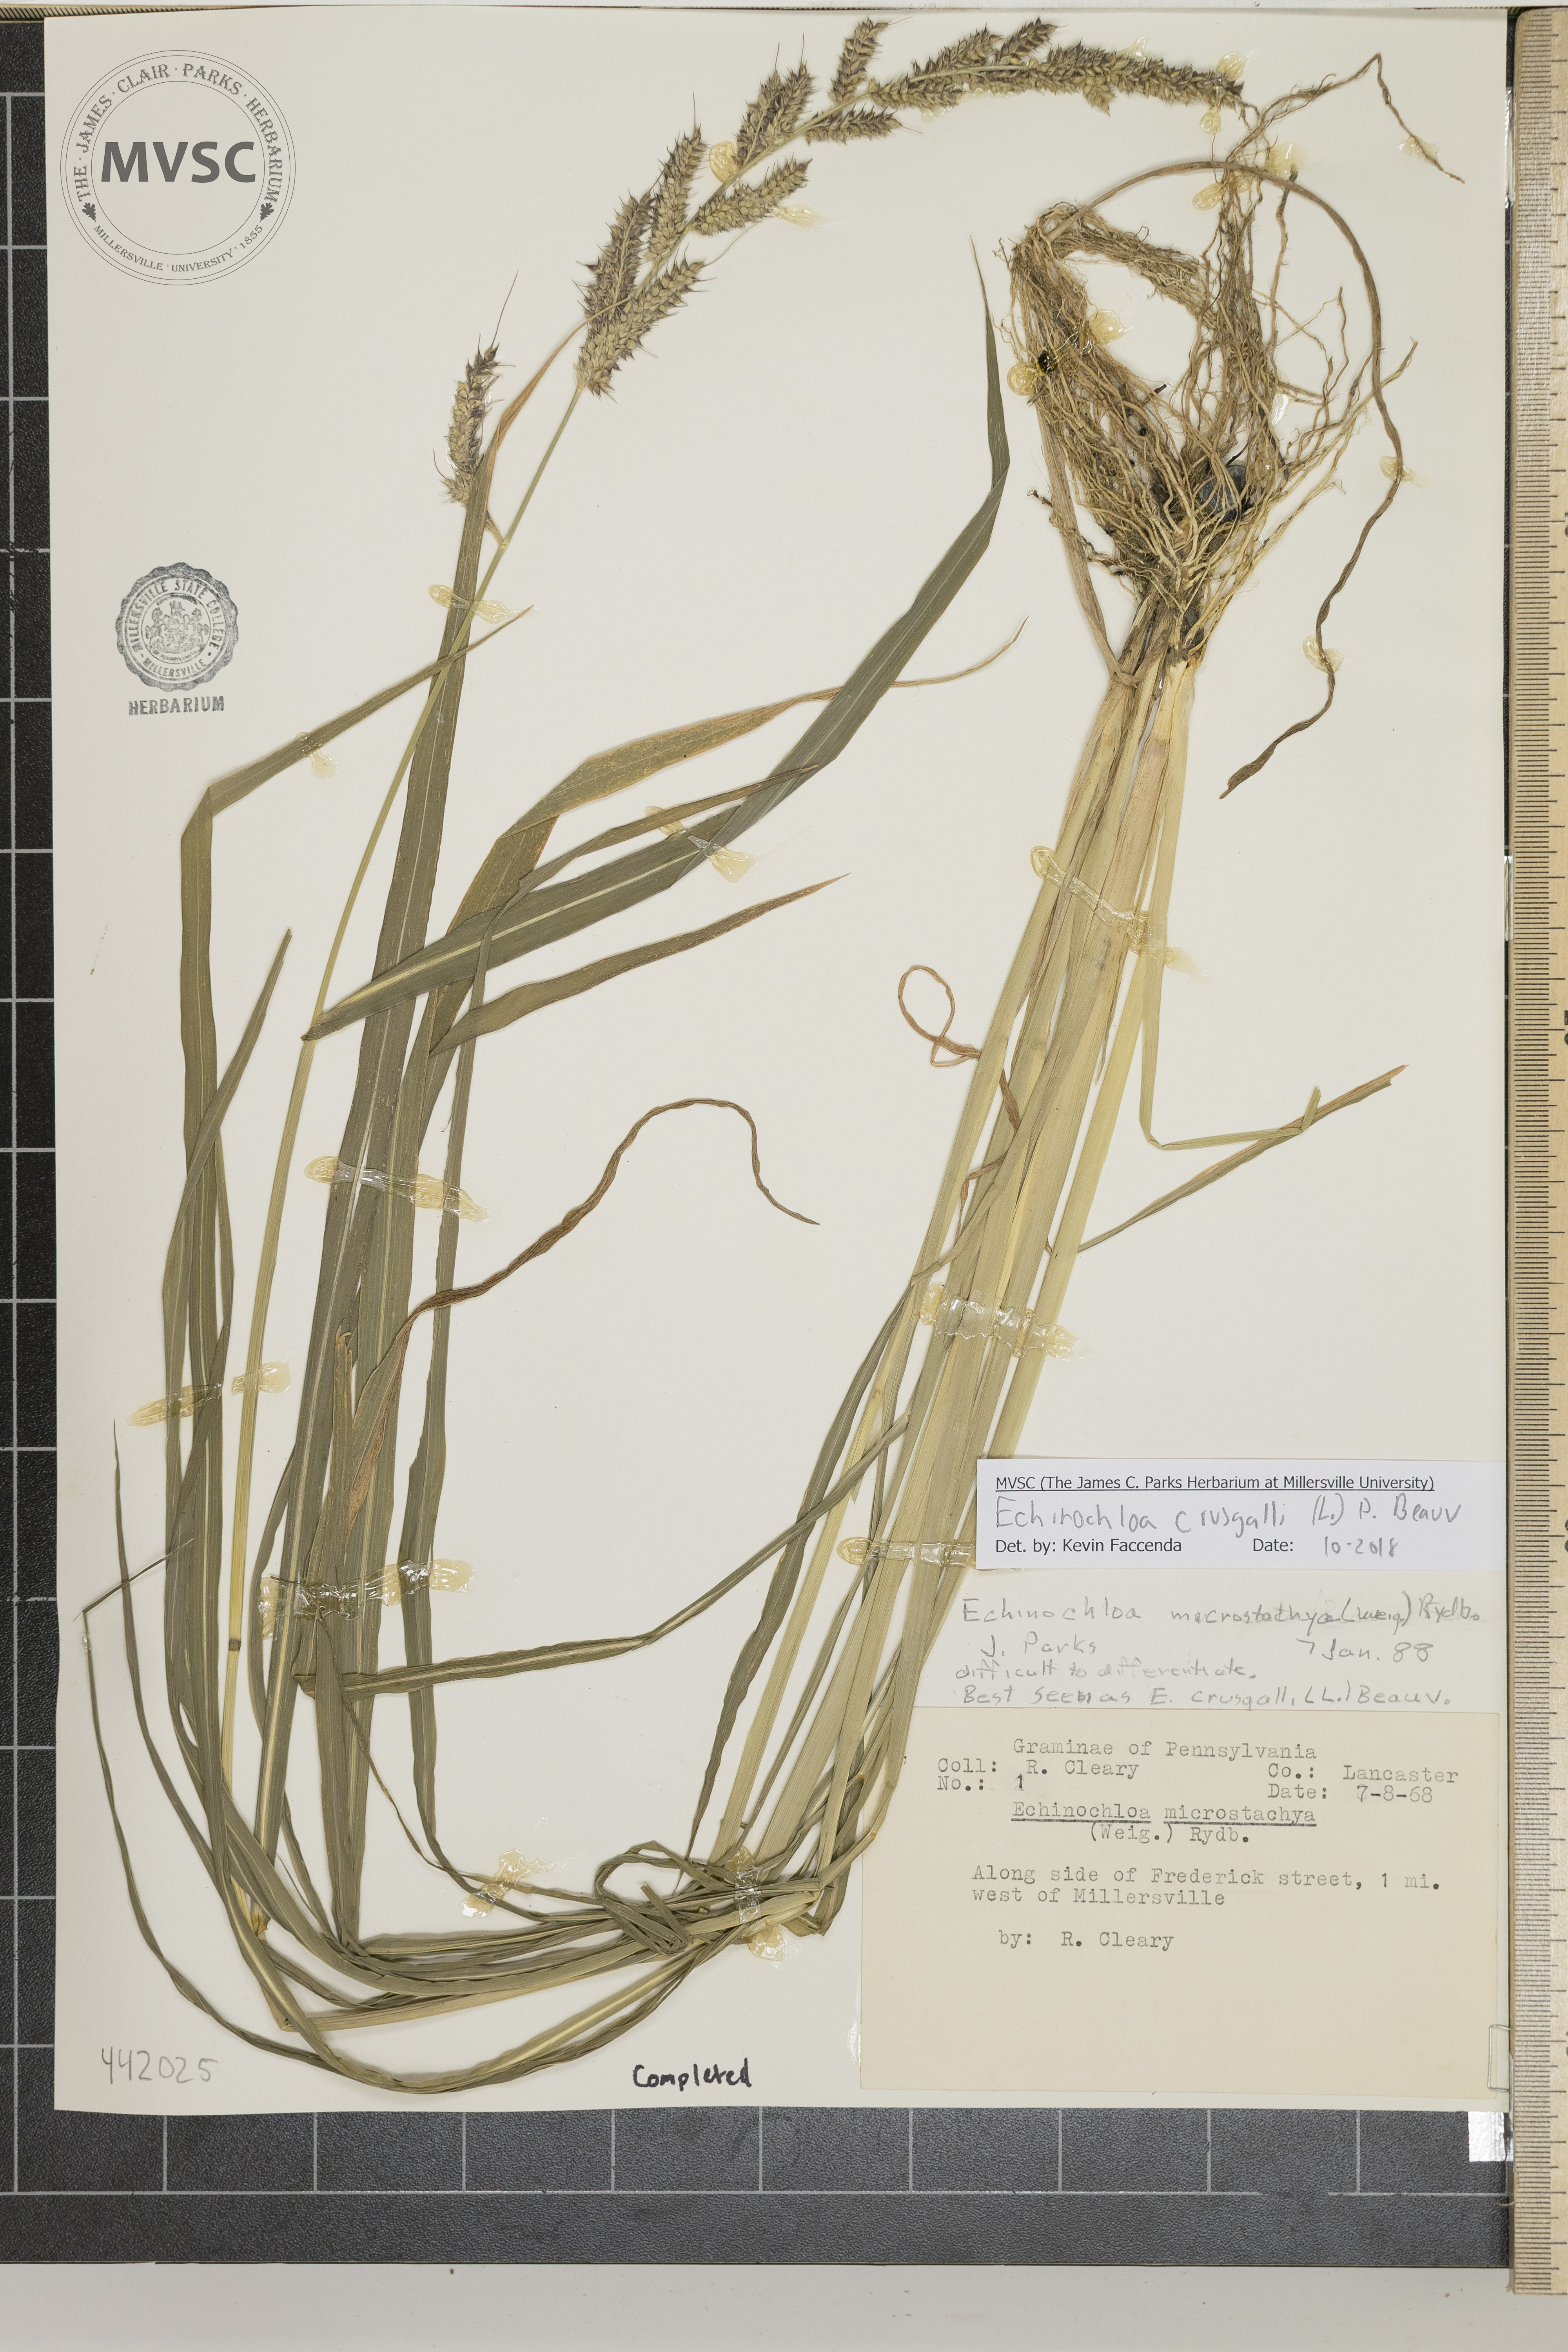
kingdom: Plantae
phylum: Tracheophyta
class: Liliopsida
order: Poales
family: Poaceae
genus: Echinochloa
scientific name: Echinochloa crus-galli
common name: Cockspur
